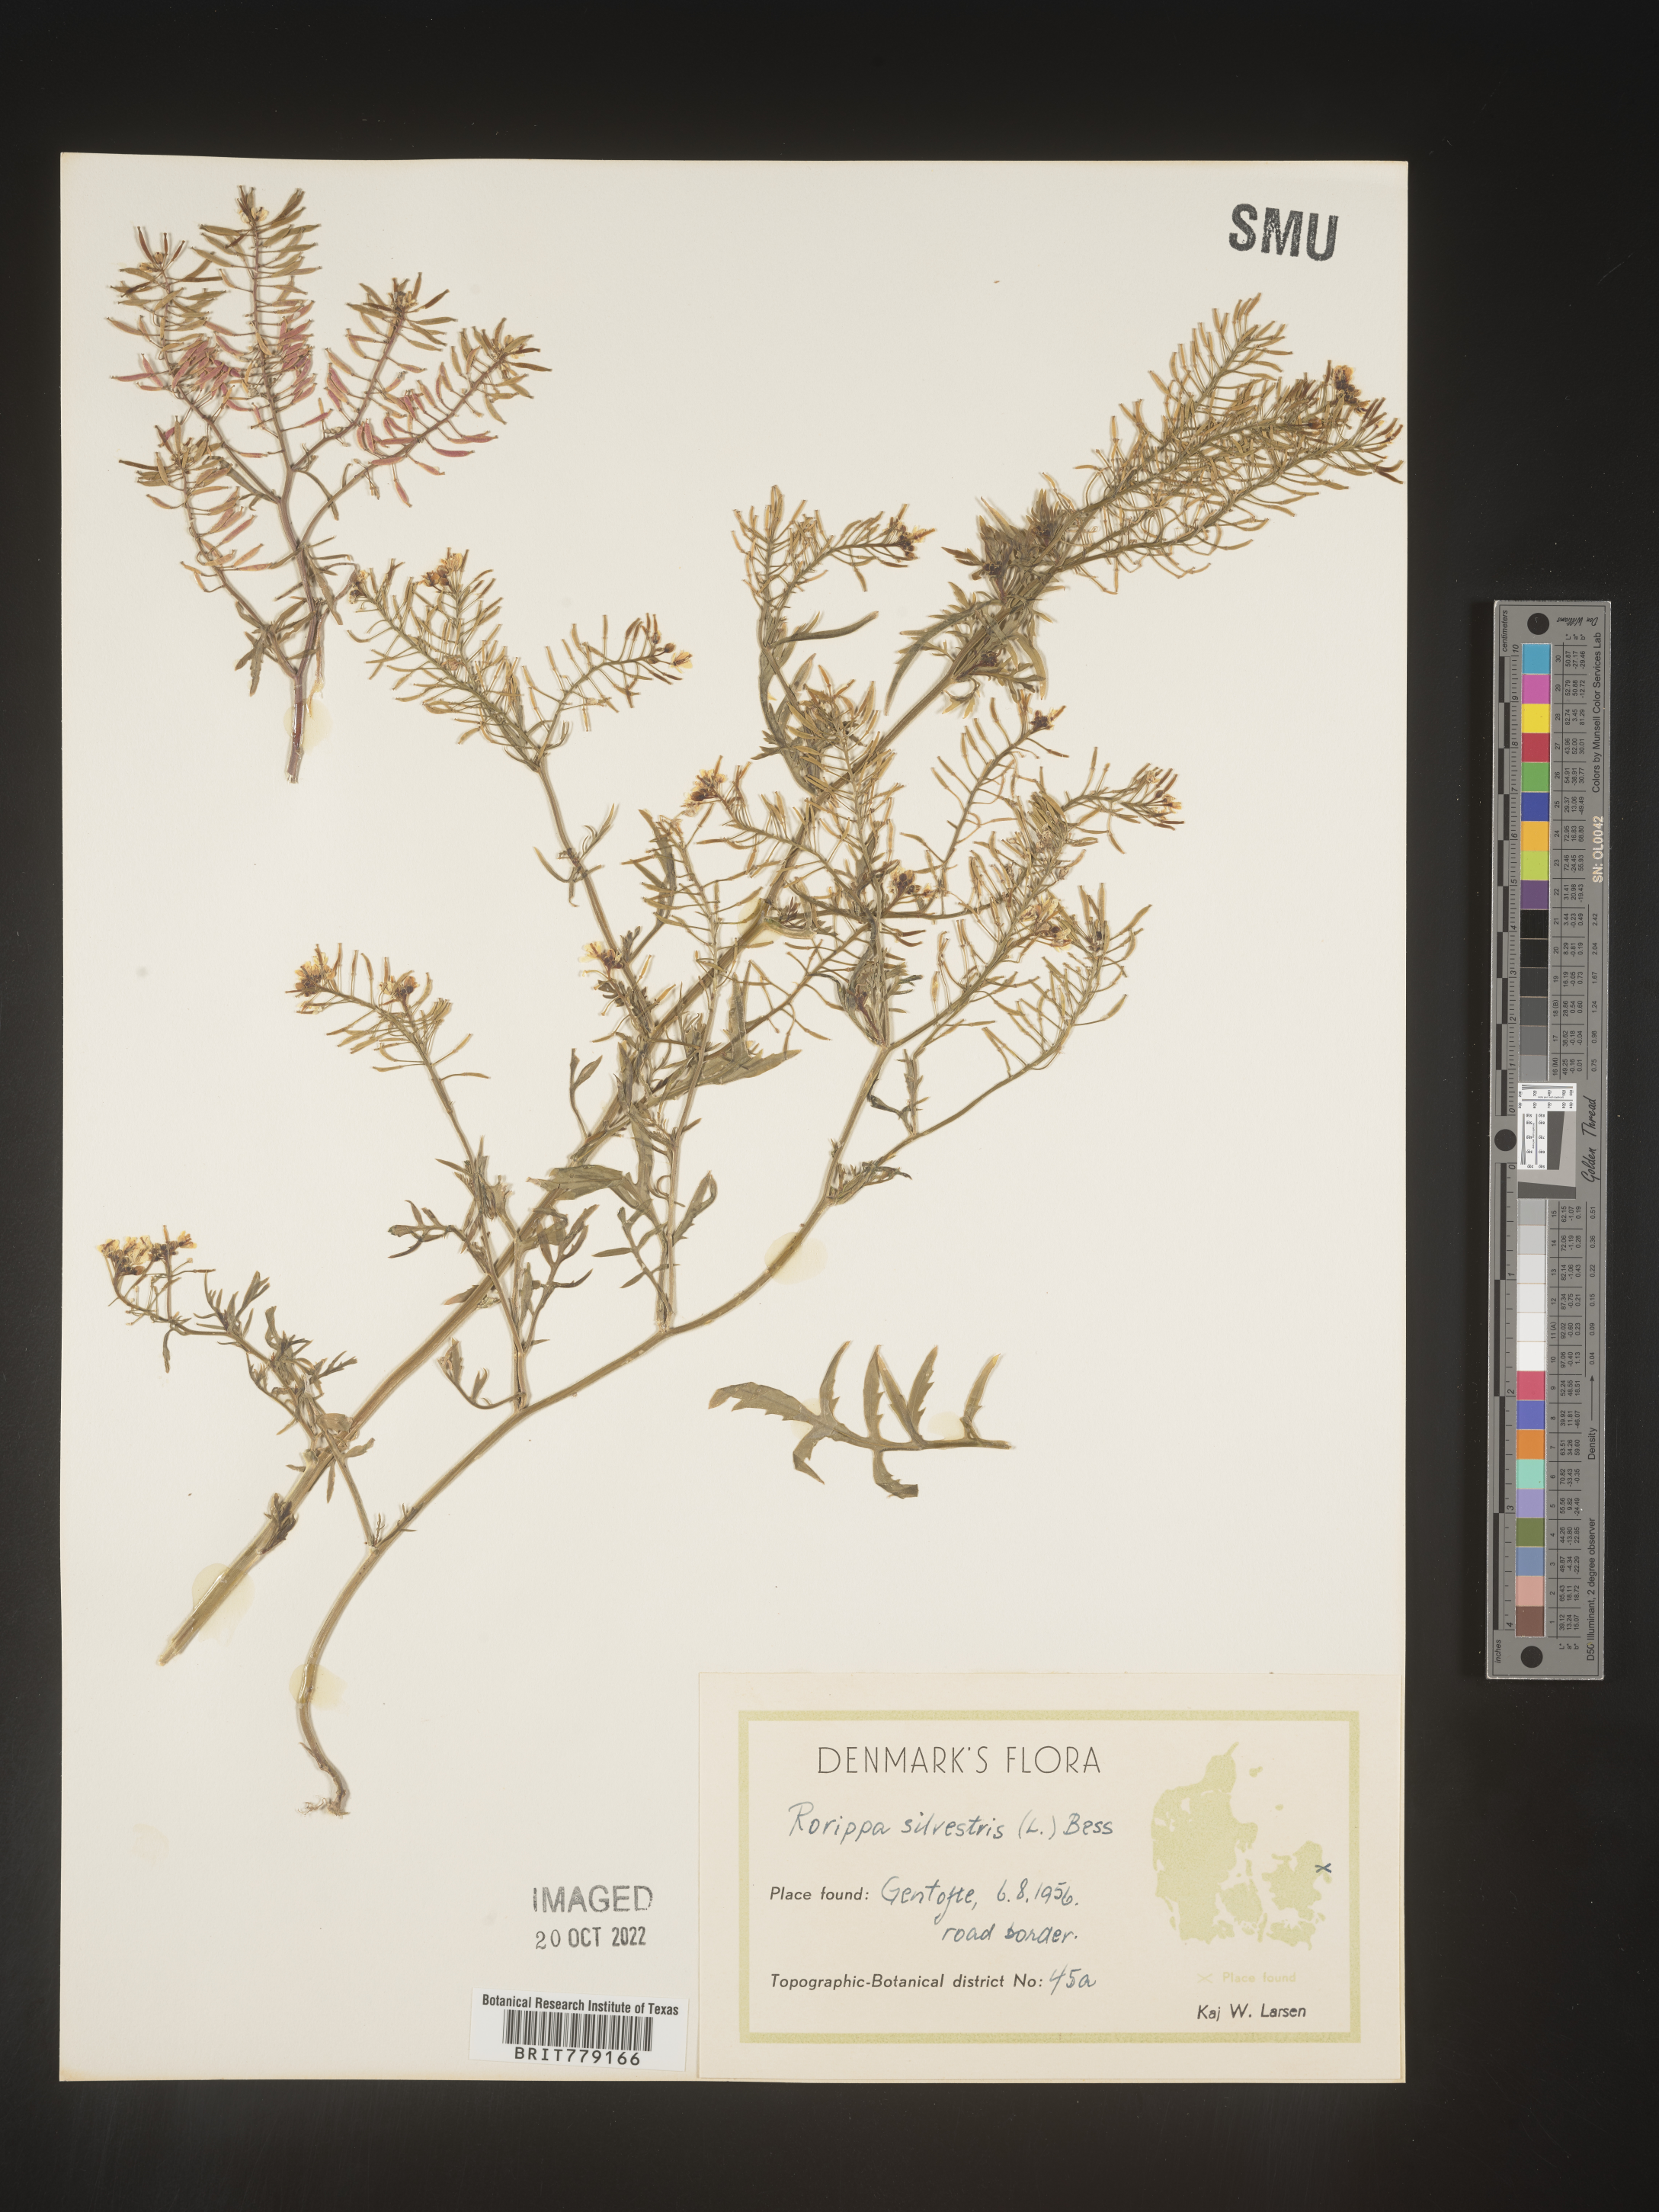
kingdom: Plantae
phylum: Tracheophyta
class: Magnoliopsida
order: Brassicales
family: Brassicaceae
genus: Rorippa
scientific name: Rorippa
